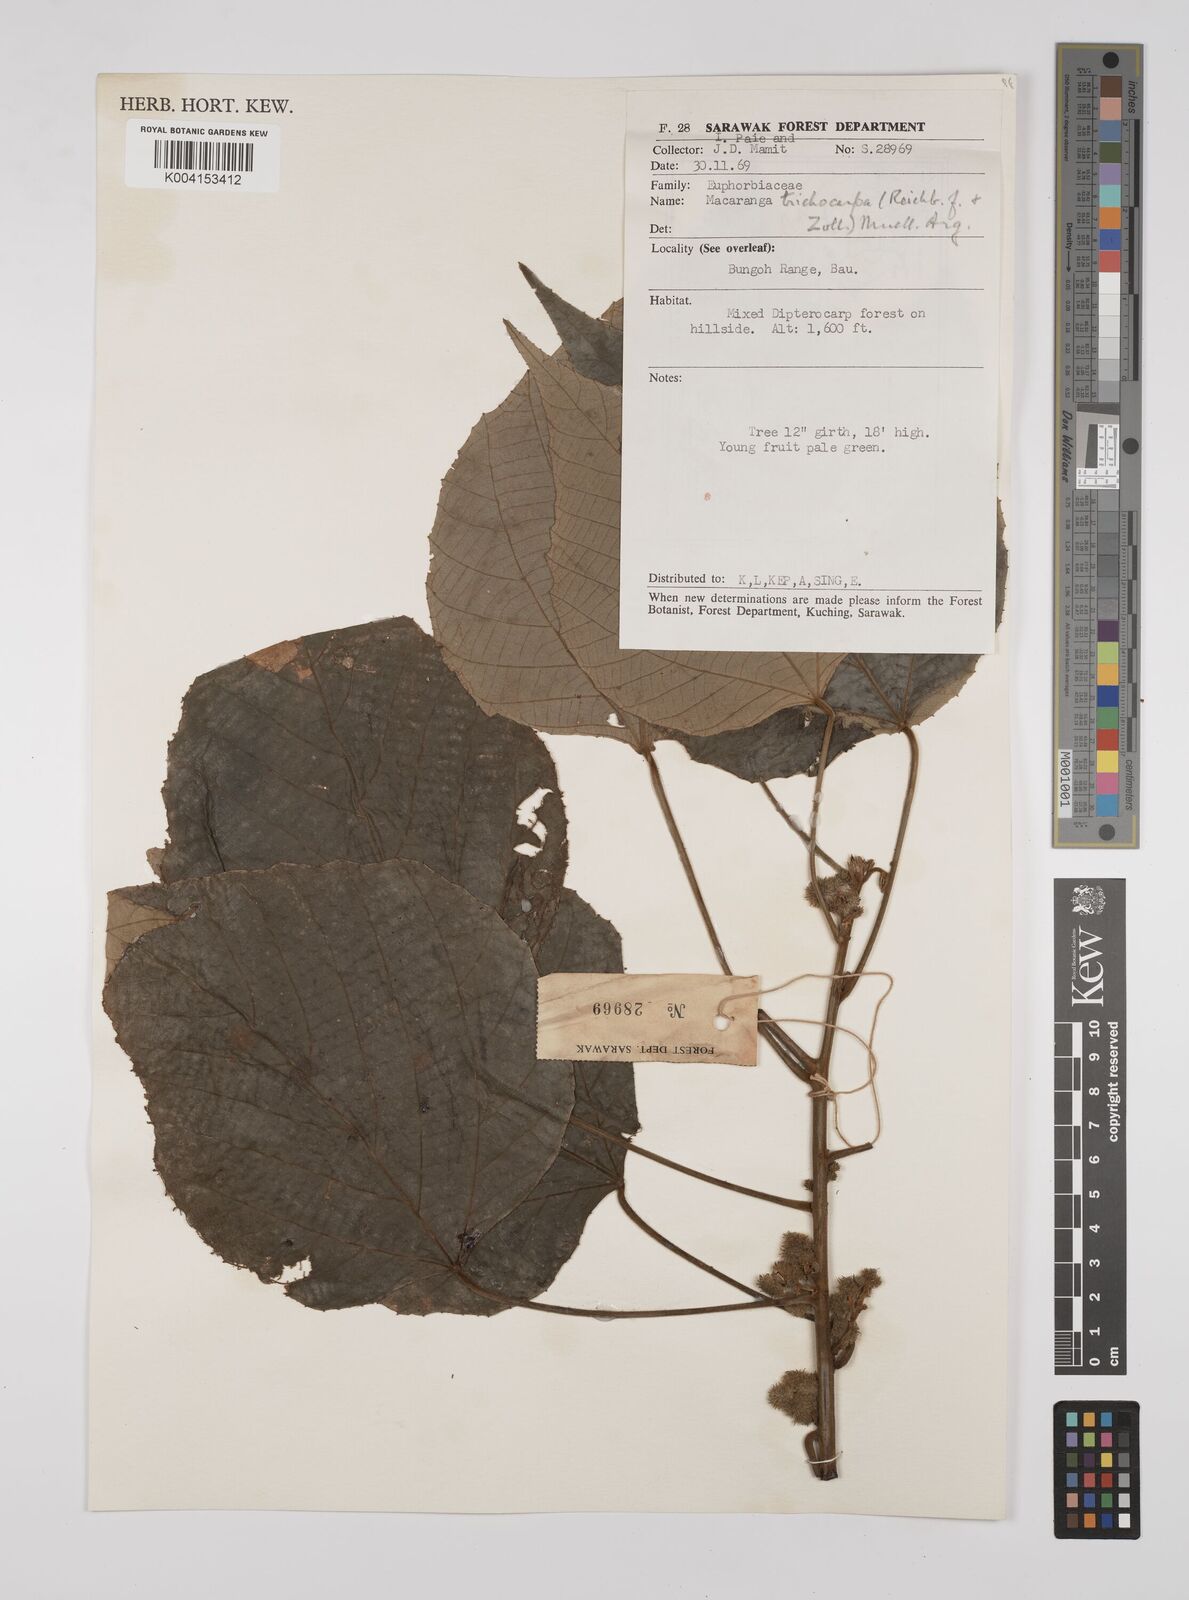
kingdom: Plantae
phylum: Tracheophyta
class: Magnoliopsida
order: Malpighiales
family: Euphorbiaceae
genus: Macaranga
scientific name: Macaranga trichocarpa
